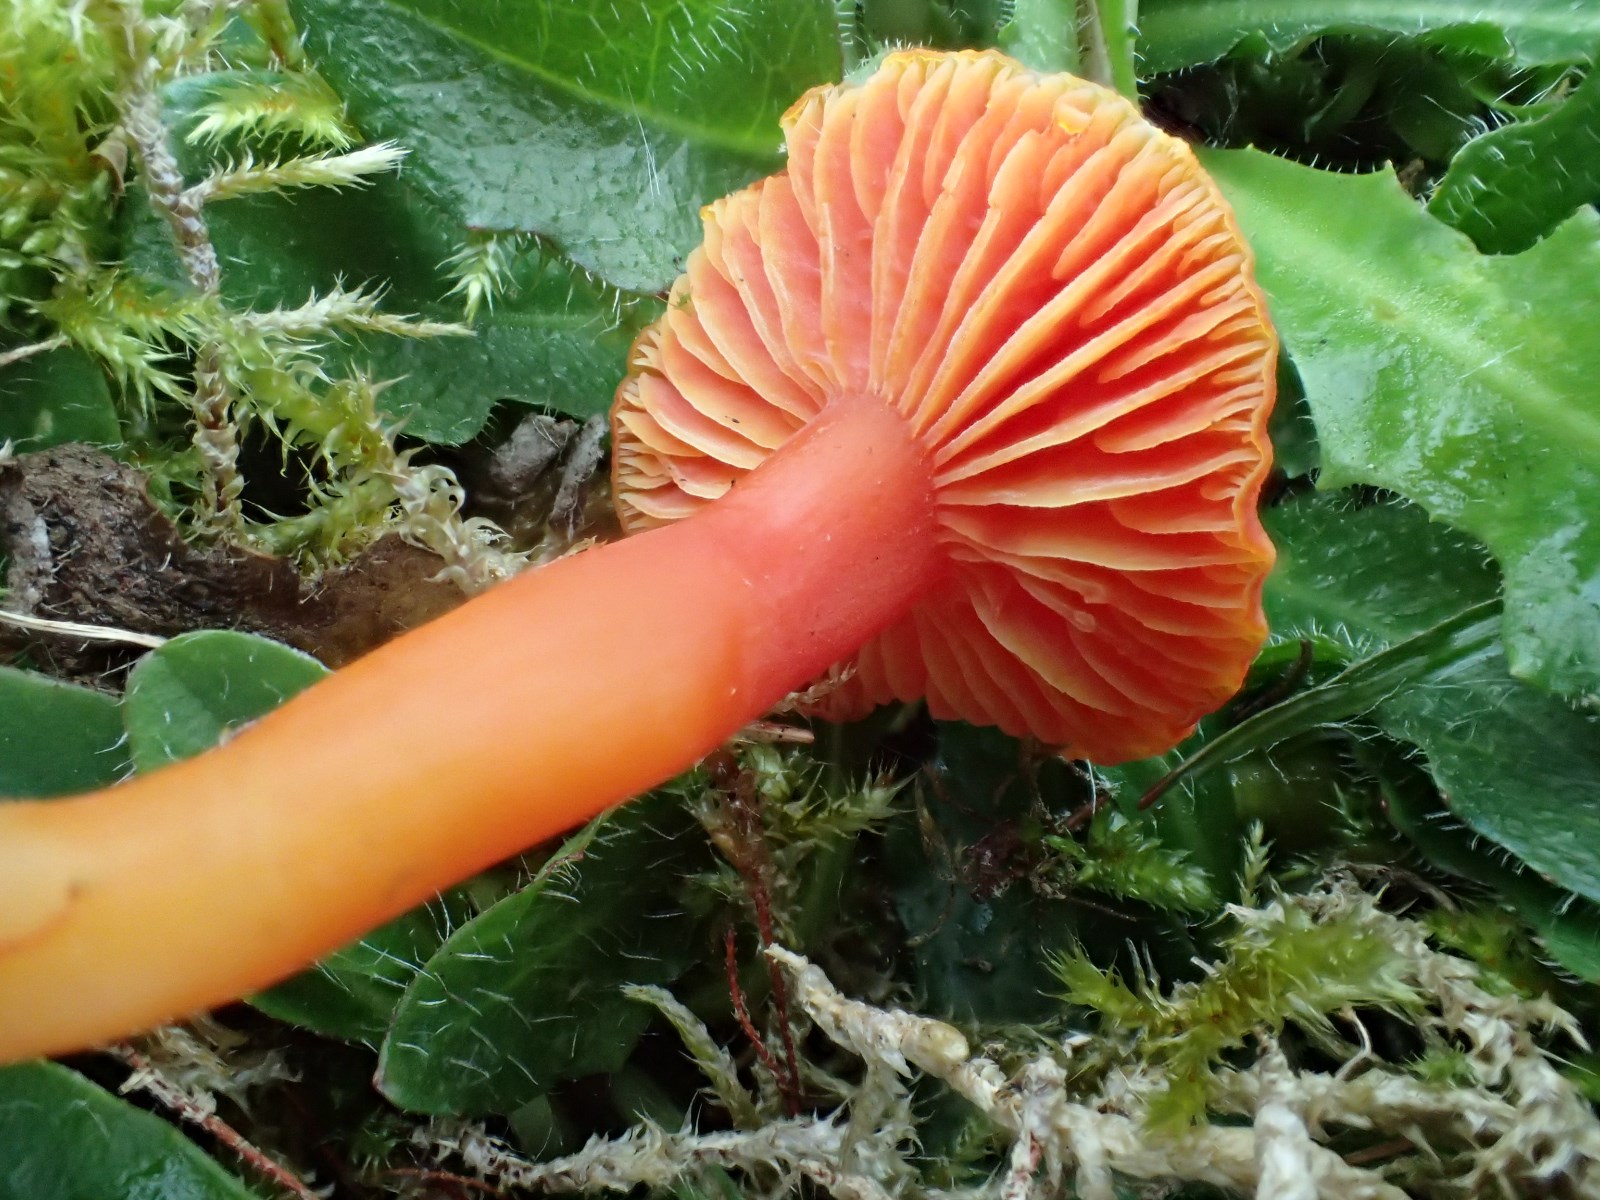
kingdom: Fungi
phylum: Basidiomycota
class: Agaricomycetes
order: Agaricales
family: Hygrophoraceae
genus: Hygrocybe
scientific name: Hygrocybe miniata
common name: mønje-vokshat
